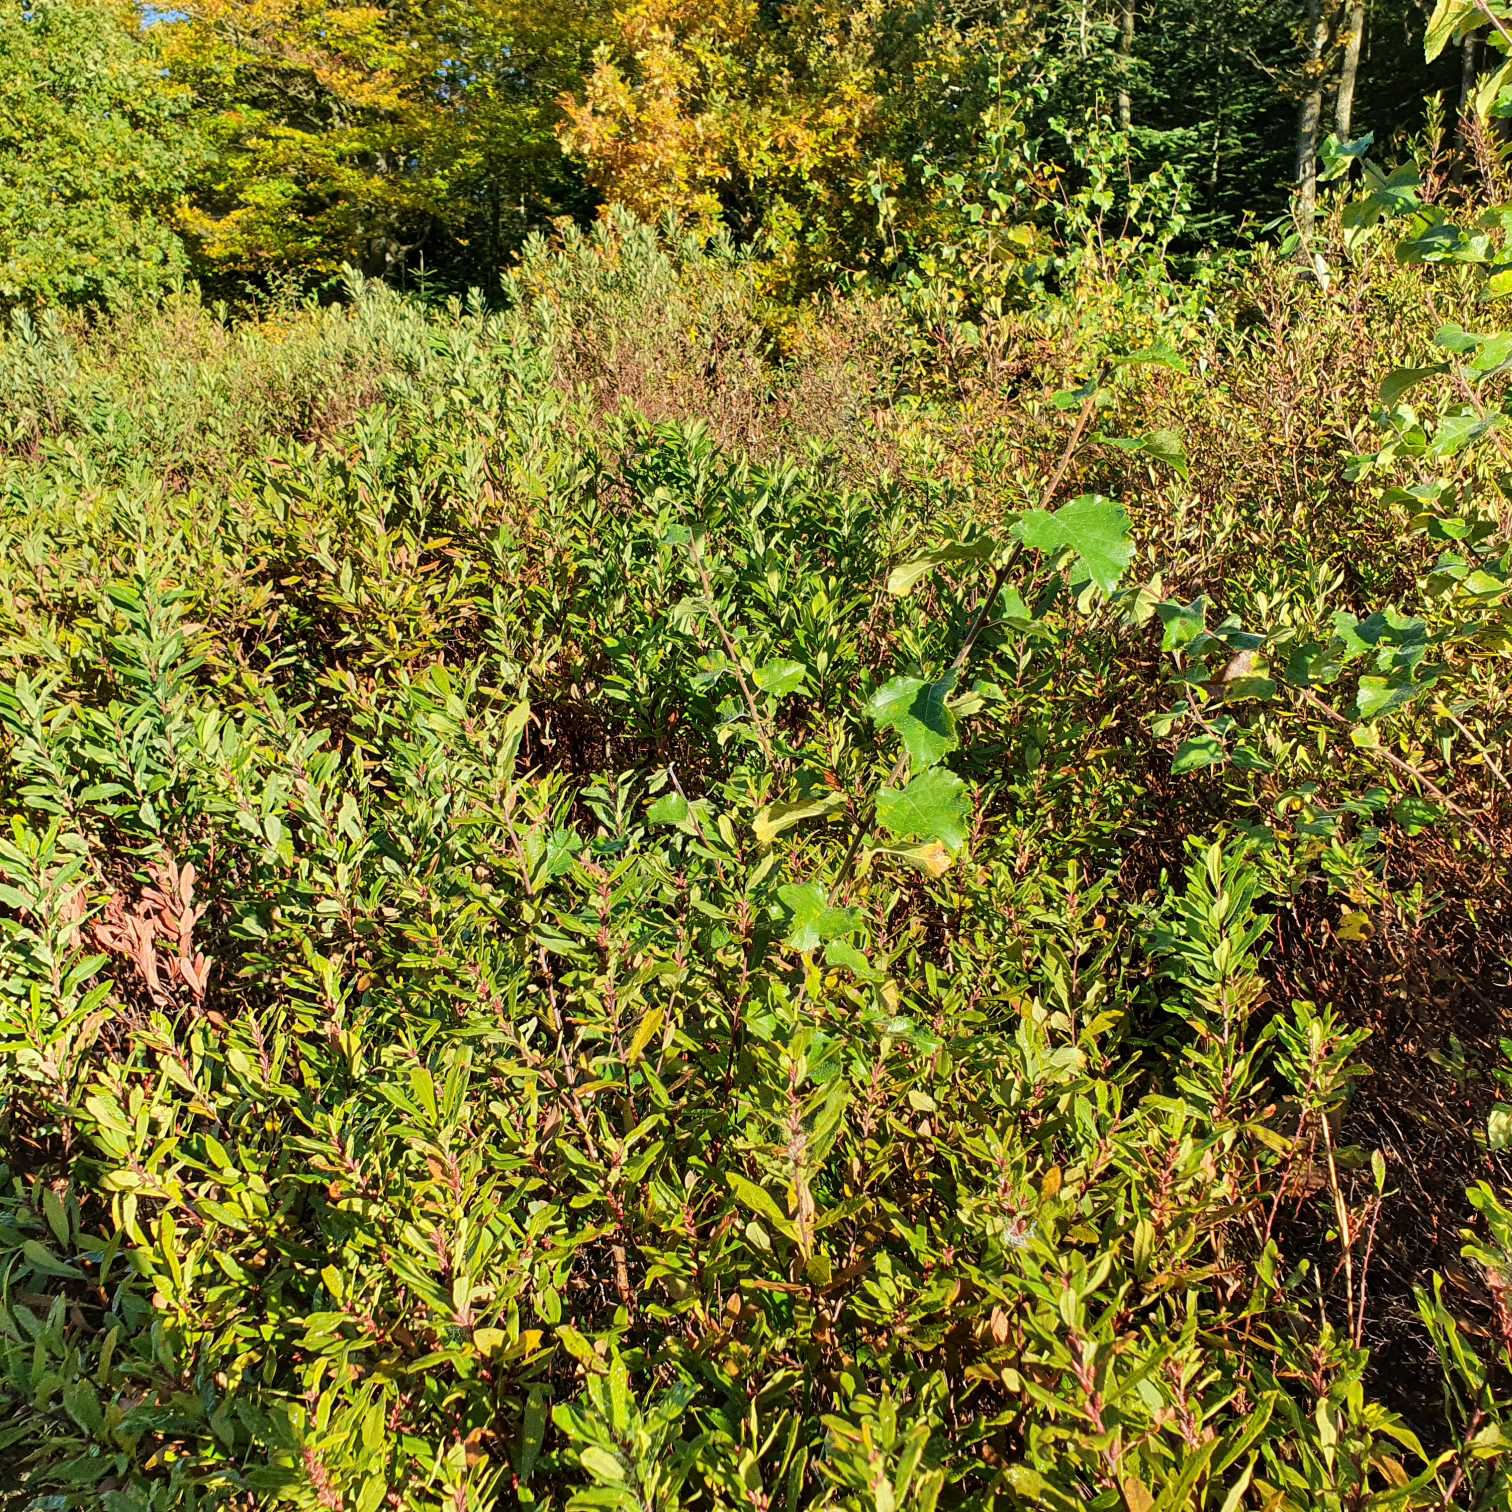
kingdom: Plantae
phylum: Tracheophyta
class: Magnoliopsida
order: Fagales
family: Myricaceae
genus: Myrica
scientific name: Myrica gale
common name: Pors
